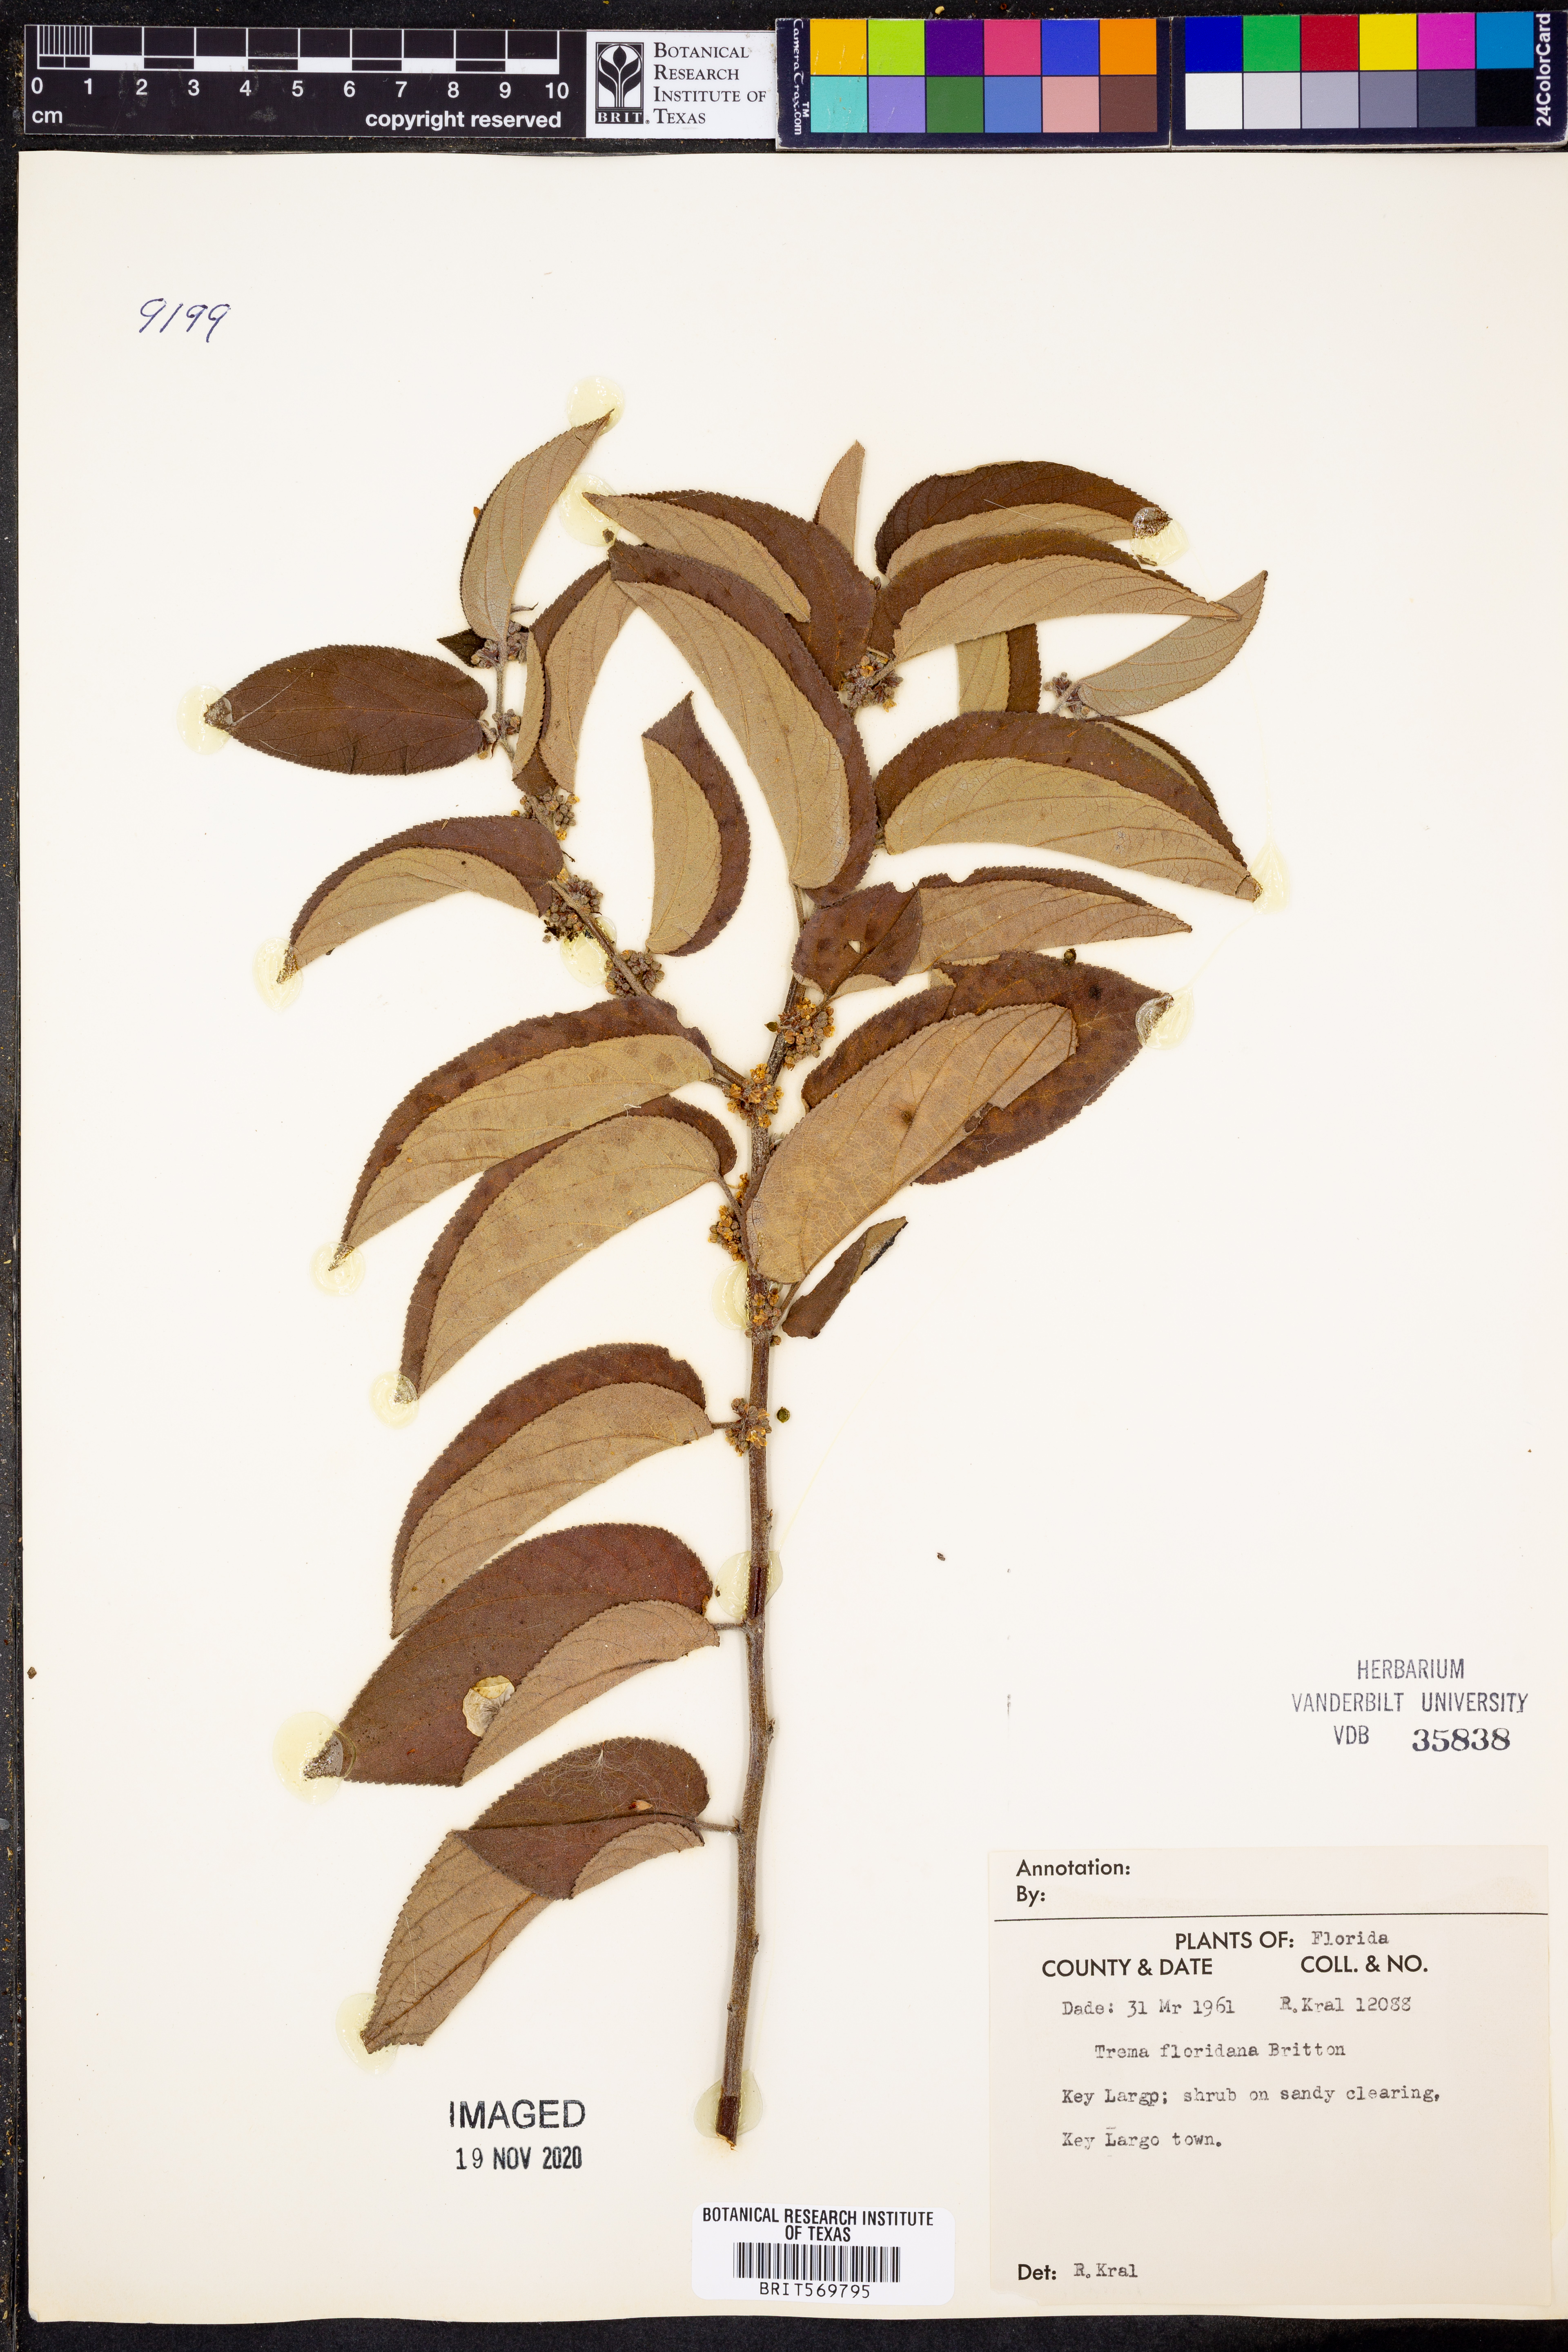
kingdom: Plantae
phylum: Tracheophyta
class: Magnoliopsida
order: Rosales
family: Cannabaceae
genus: Trema
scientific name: Trema micranthum
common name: Jamaican nettletree
